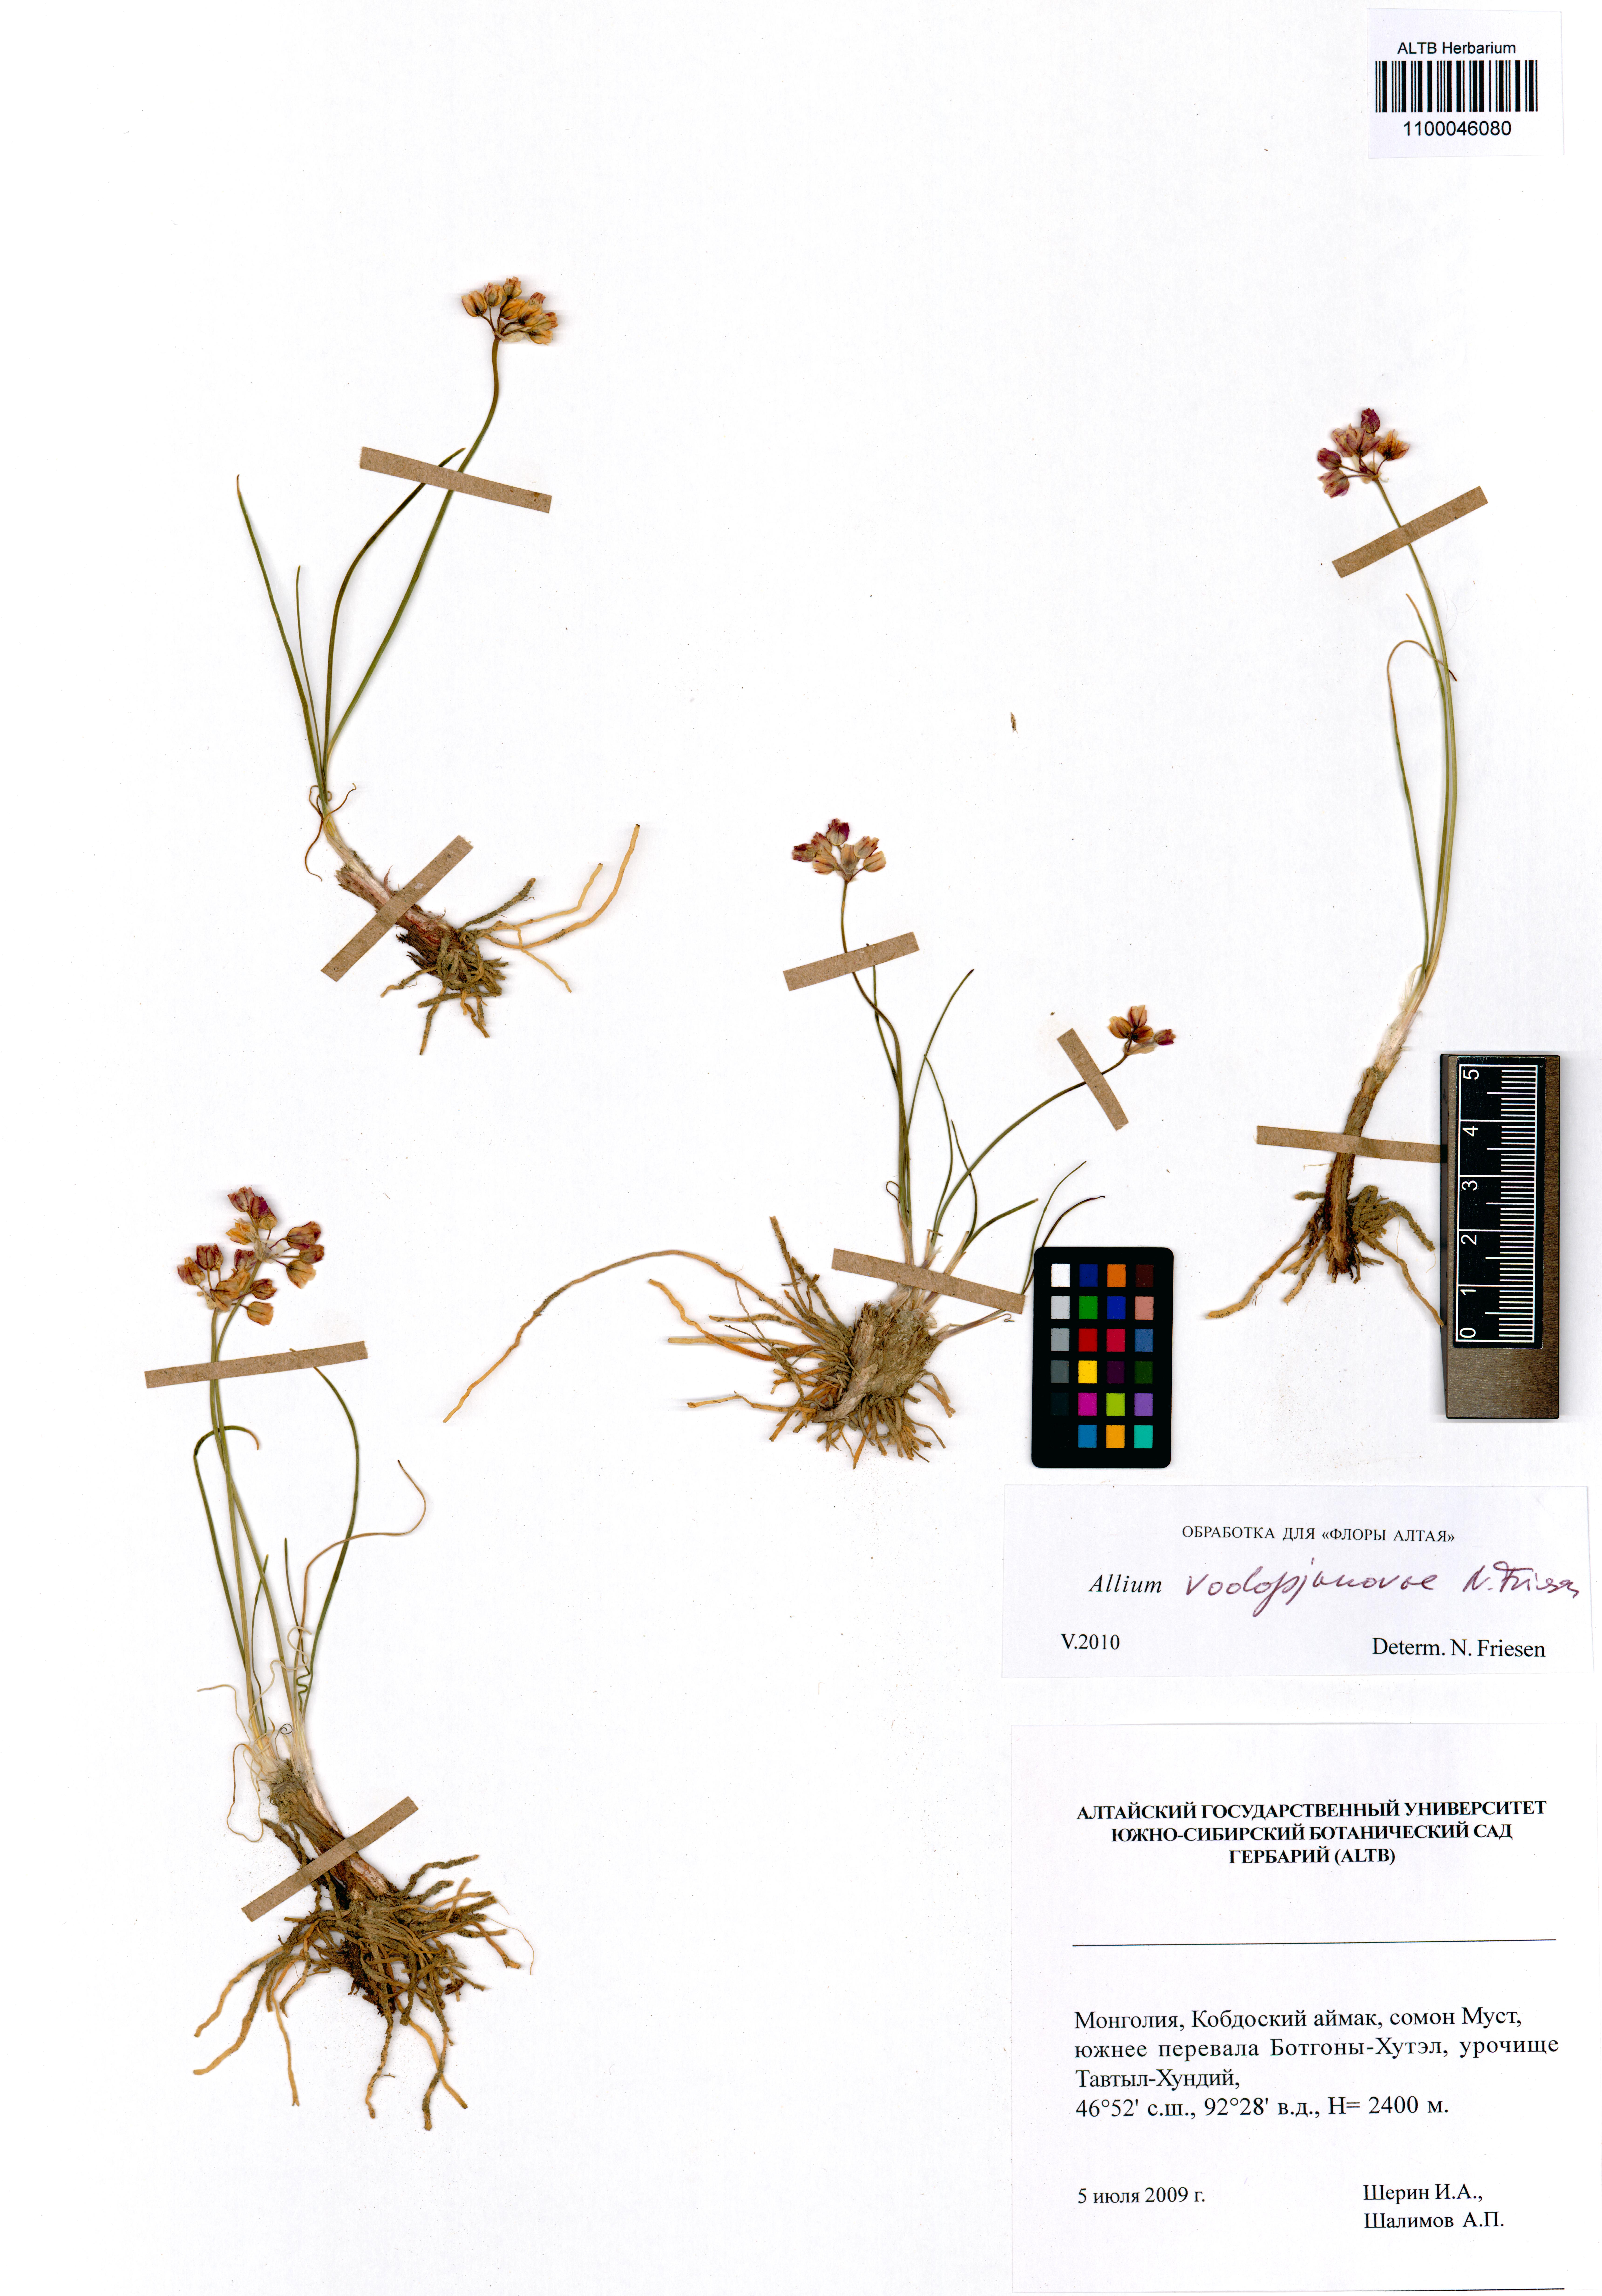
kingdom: Plantae
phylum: Tracheophyta
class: Liliopsida
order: Asparagales
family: Amaryllidaceae
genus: Allium
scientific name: Allium vodopjanovae
